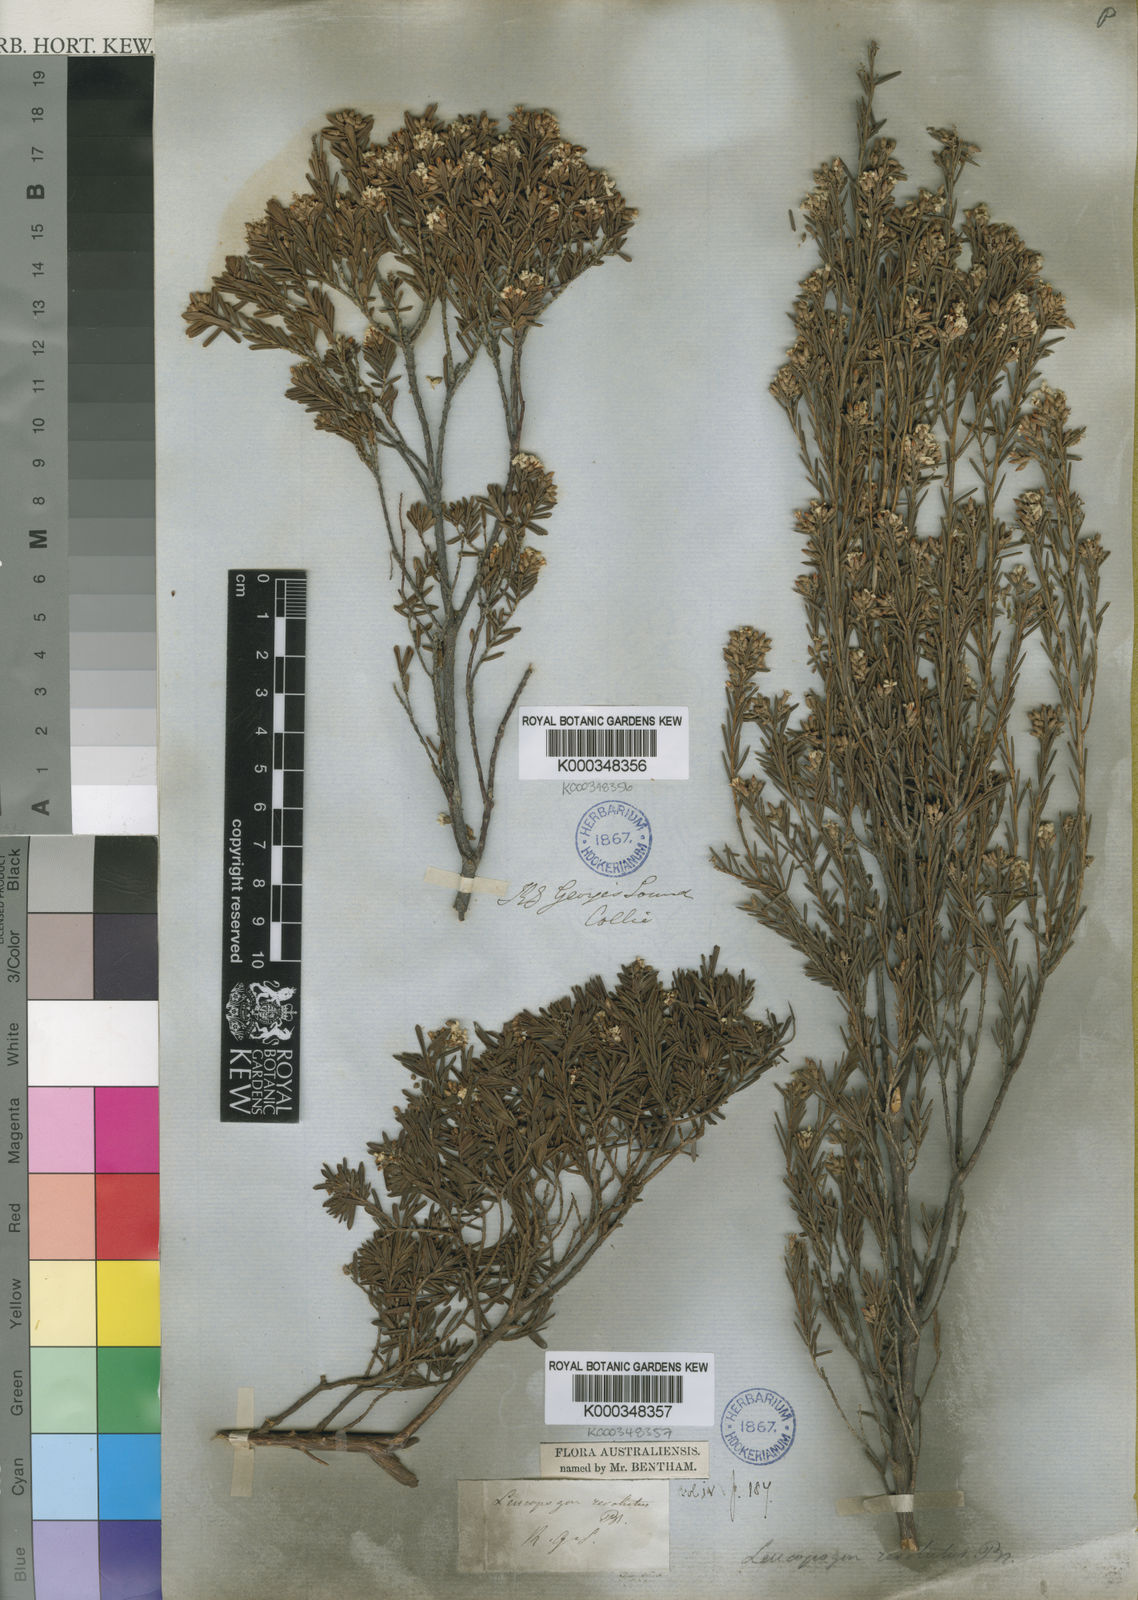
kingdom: Plantae
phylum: Tracheophyta
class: Magnoliopsida
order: Ericales
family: Ericaceae
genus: Leucopogon
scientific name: Leucopogon obovatus
